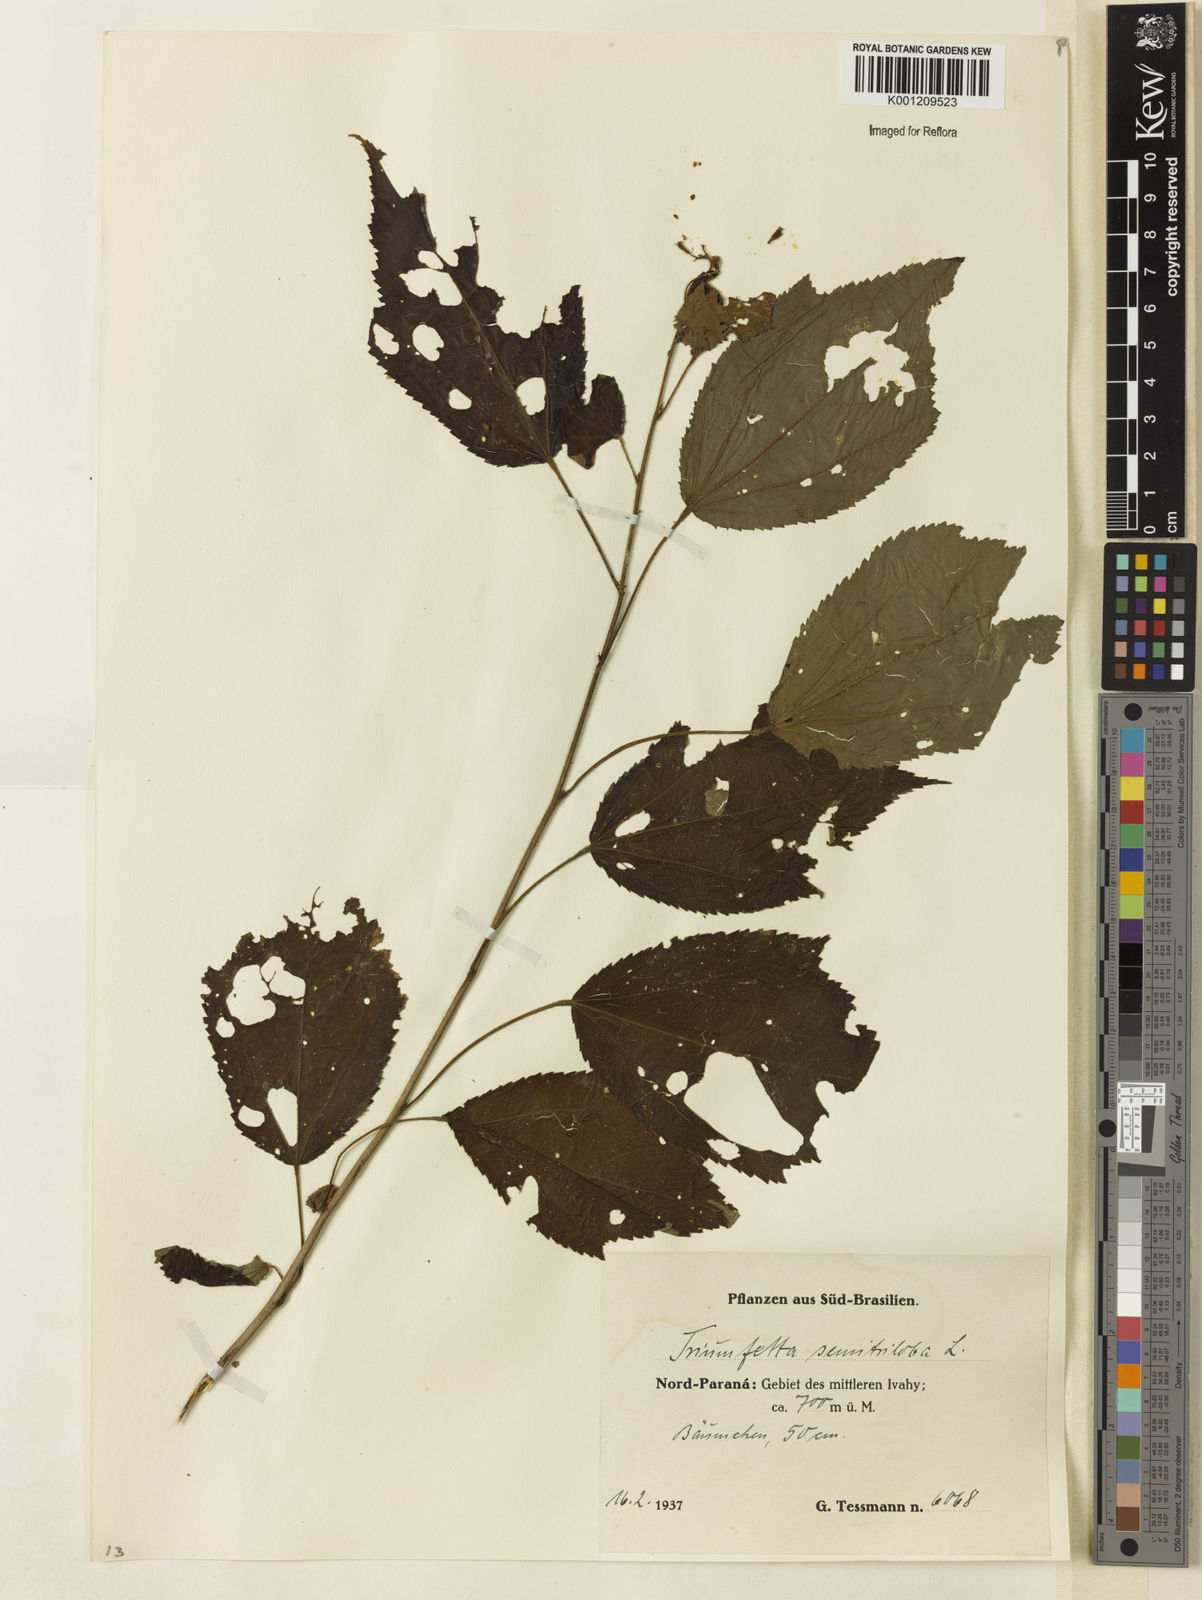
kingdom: Plantae
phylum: Tracheophyta
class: Magnoliopsida
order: Malvales
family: Malvaceae
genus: Triumfetta
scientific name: Triumfetta semitriloba
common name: Sacramento burbark
